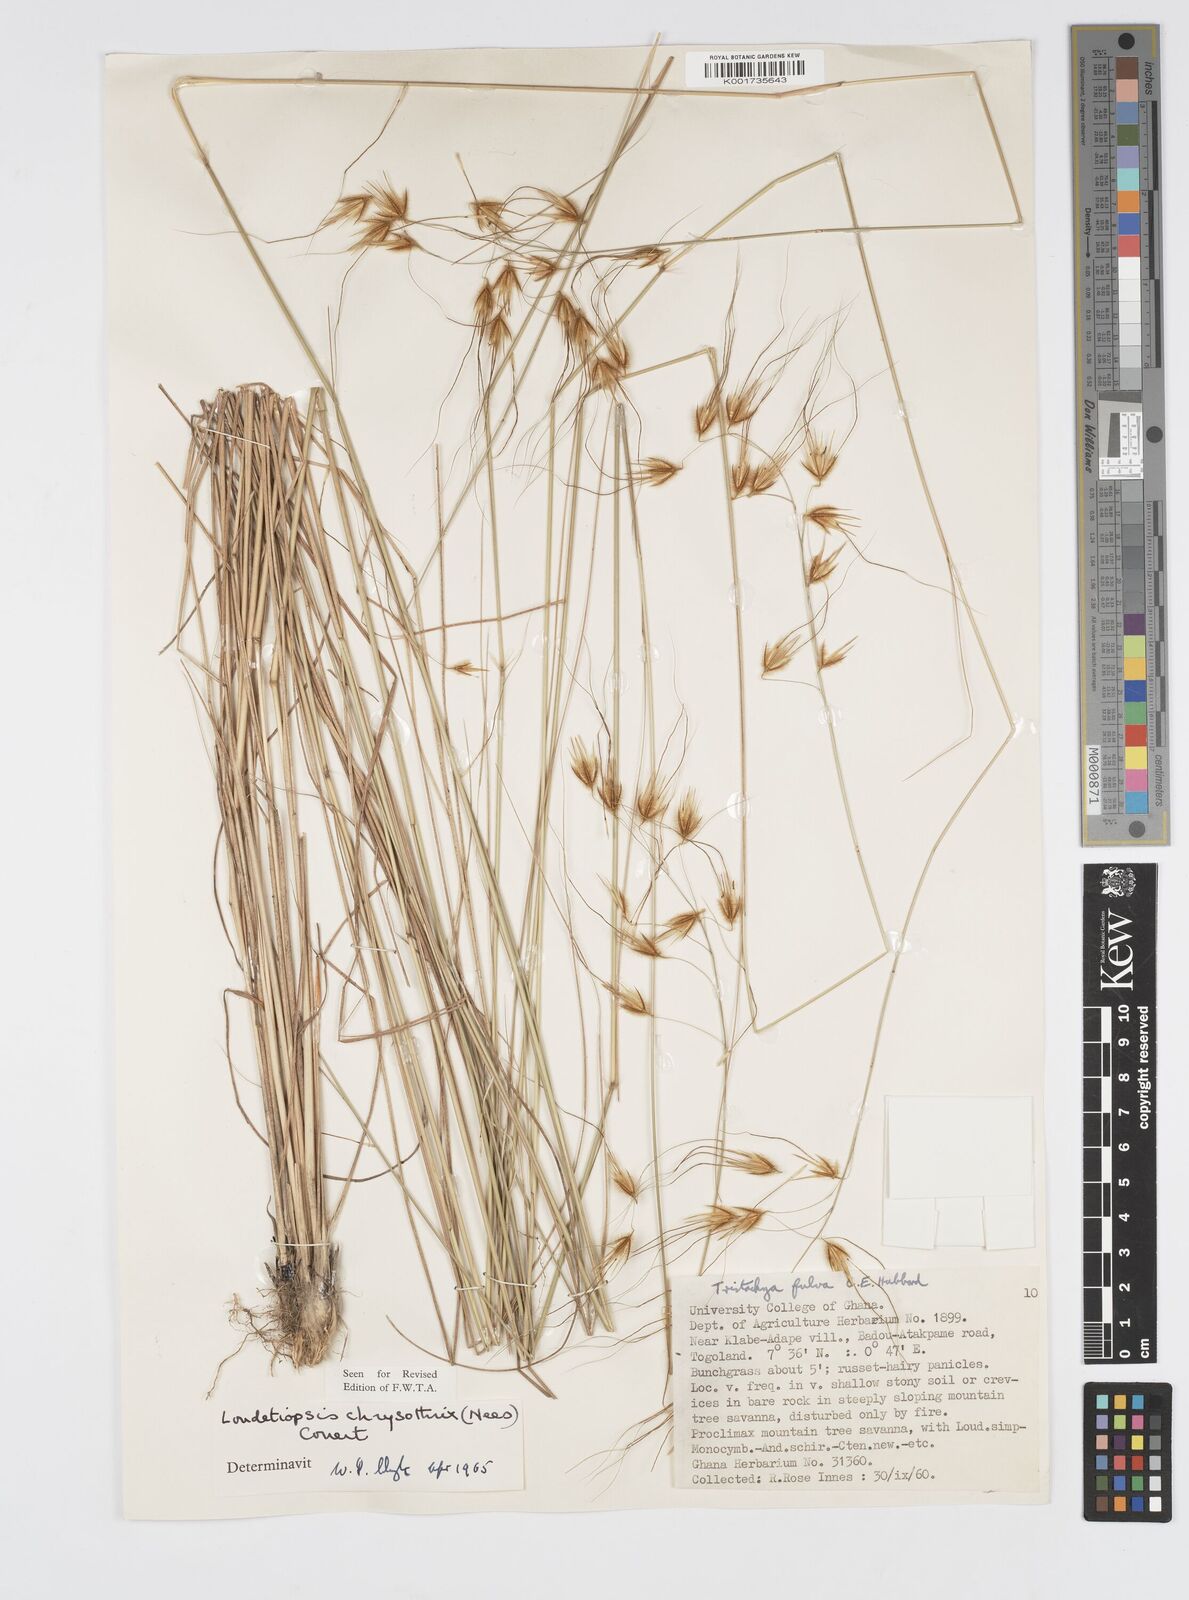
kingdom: Plantae
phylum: Tracheophyta
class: Liliopsida
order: Poales
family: Poaceae
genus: Loudetiopsis
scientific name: Loudetiopsis chrysothrix
